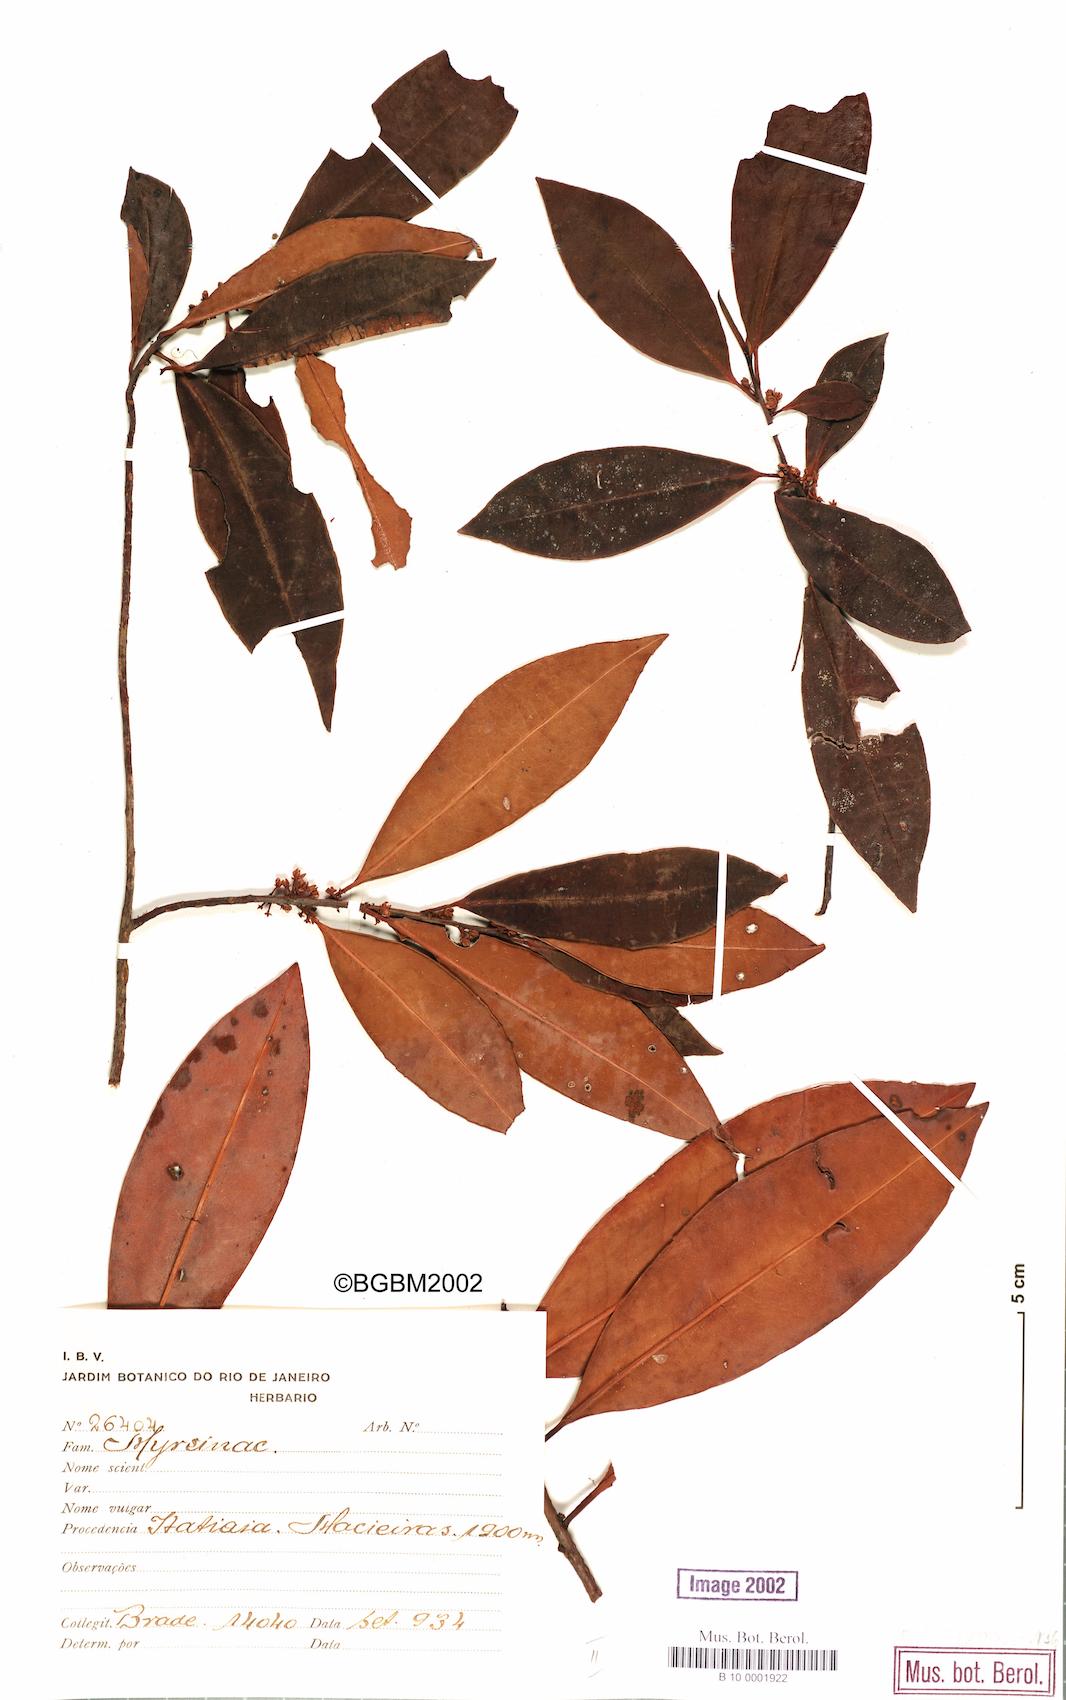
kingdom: Plantae
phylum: Tracheophyta
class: Magnoliopsida
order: Ericales
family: Primulaceae
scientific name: Primulaceae
